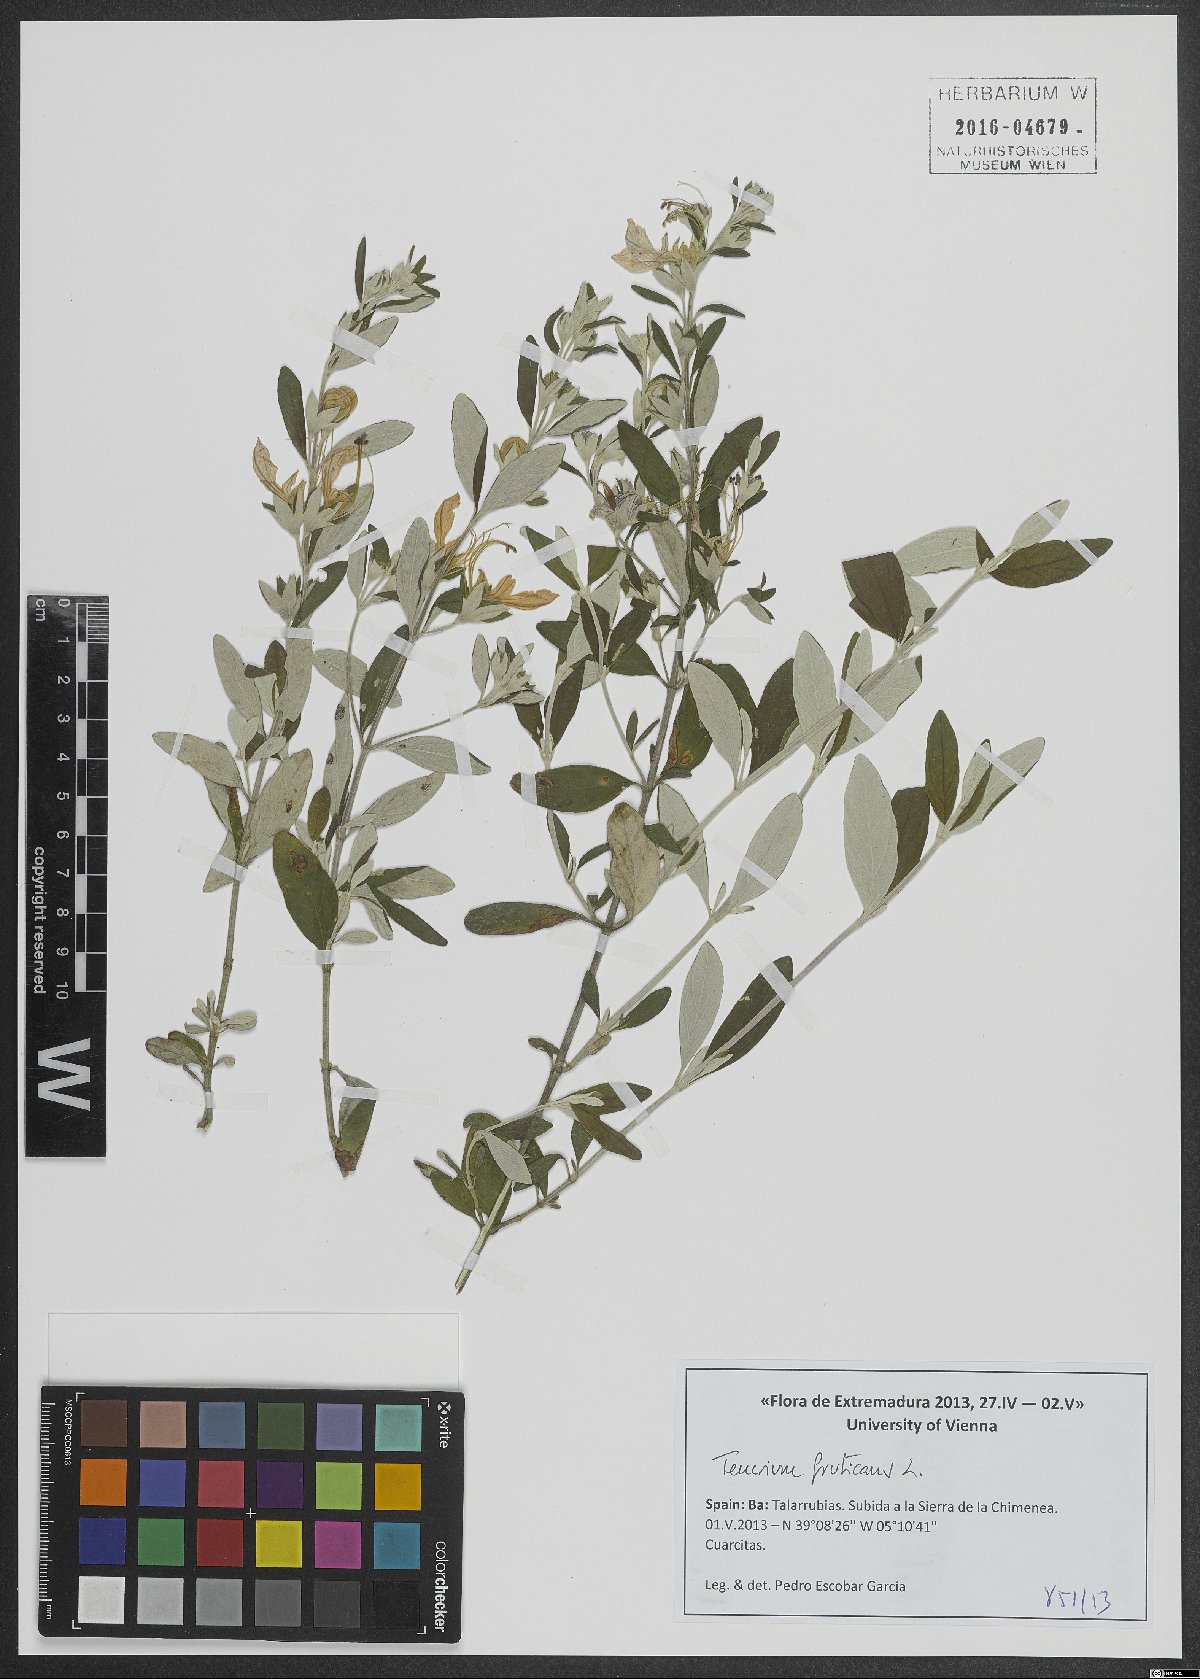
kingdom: Plantae
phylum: Tracheophyta
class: Magnoliopsida
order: Lamiales
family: Lamiaceae
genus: Teucrium
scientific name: Teucrium fruticans
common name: Shrubby germander
